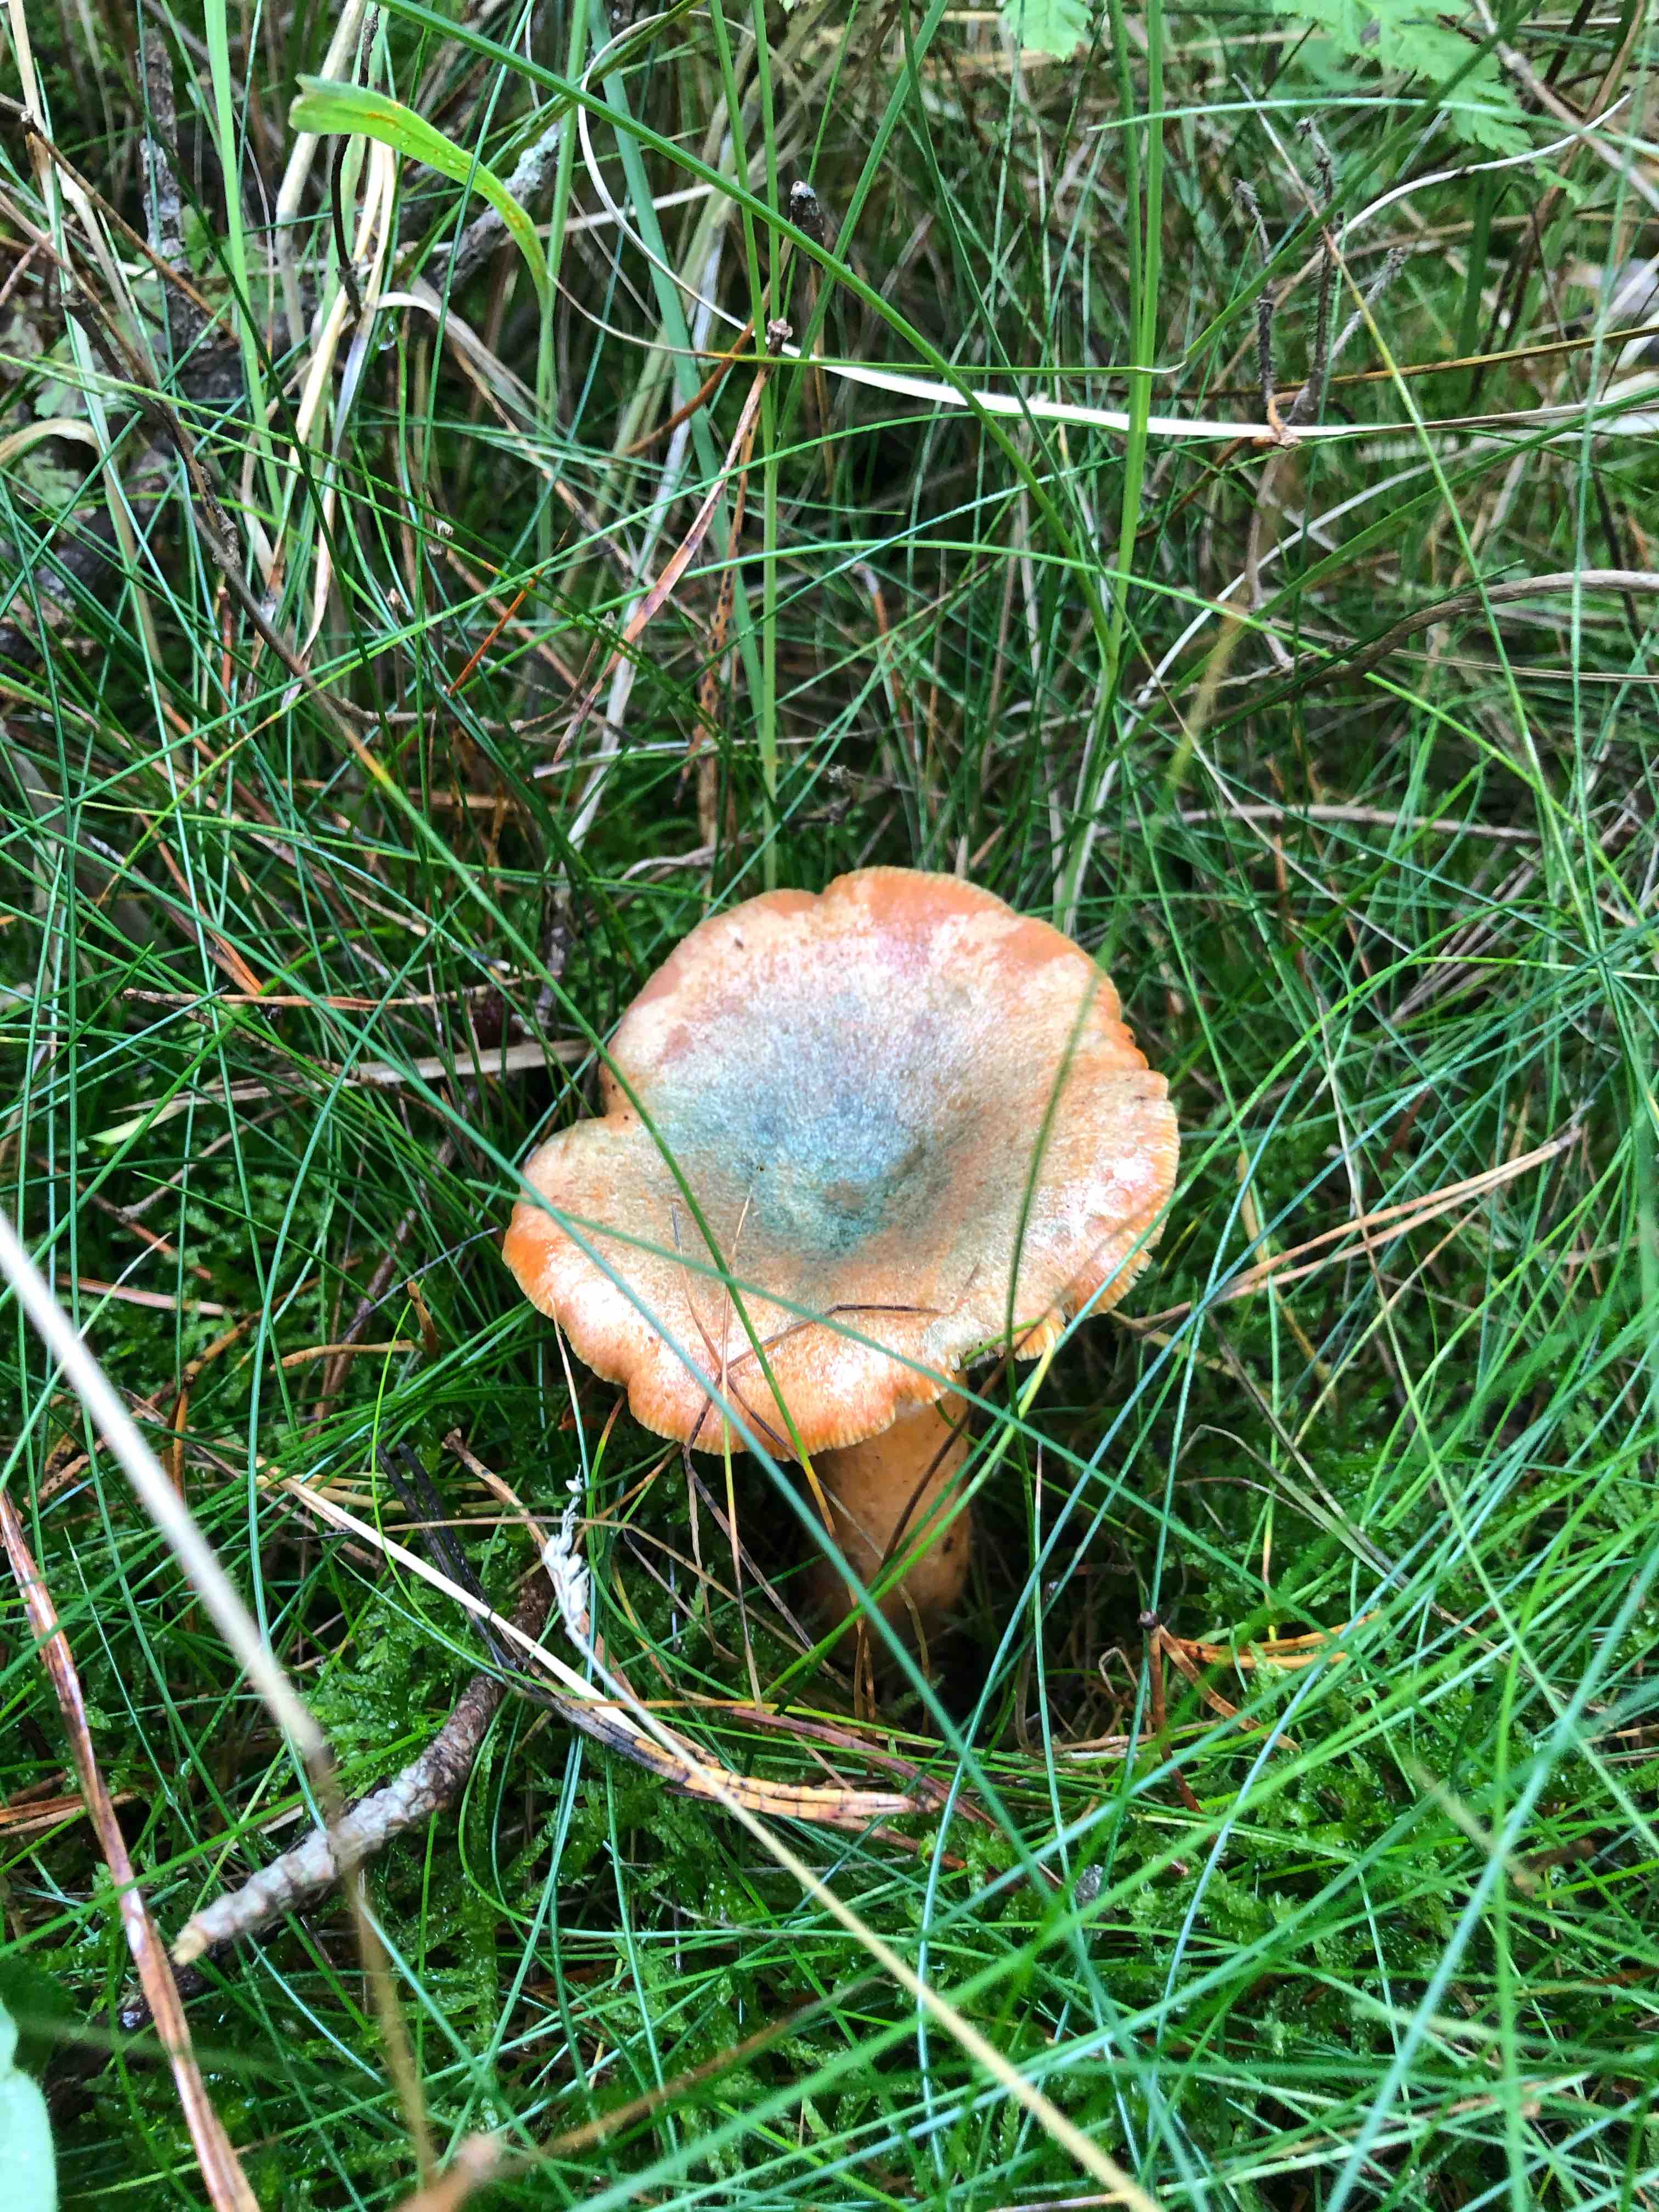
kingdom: Fungi
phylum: Basidiomycota
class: Agaricomycetes
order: Russulales
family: Russulaceae
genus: Lactarius
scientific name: Lactarius deterrimus
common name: gran-mælkehat
